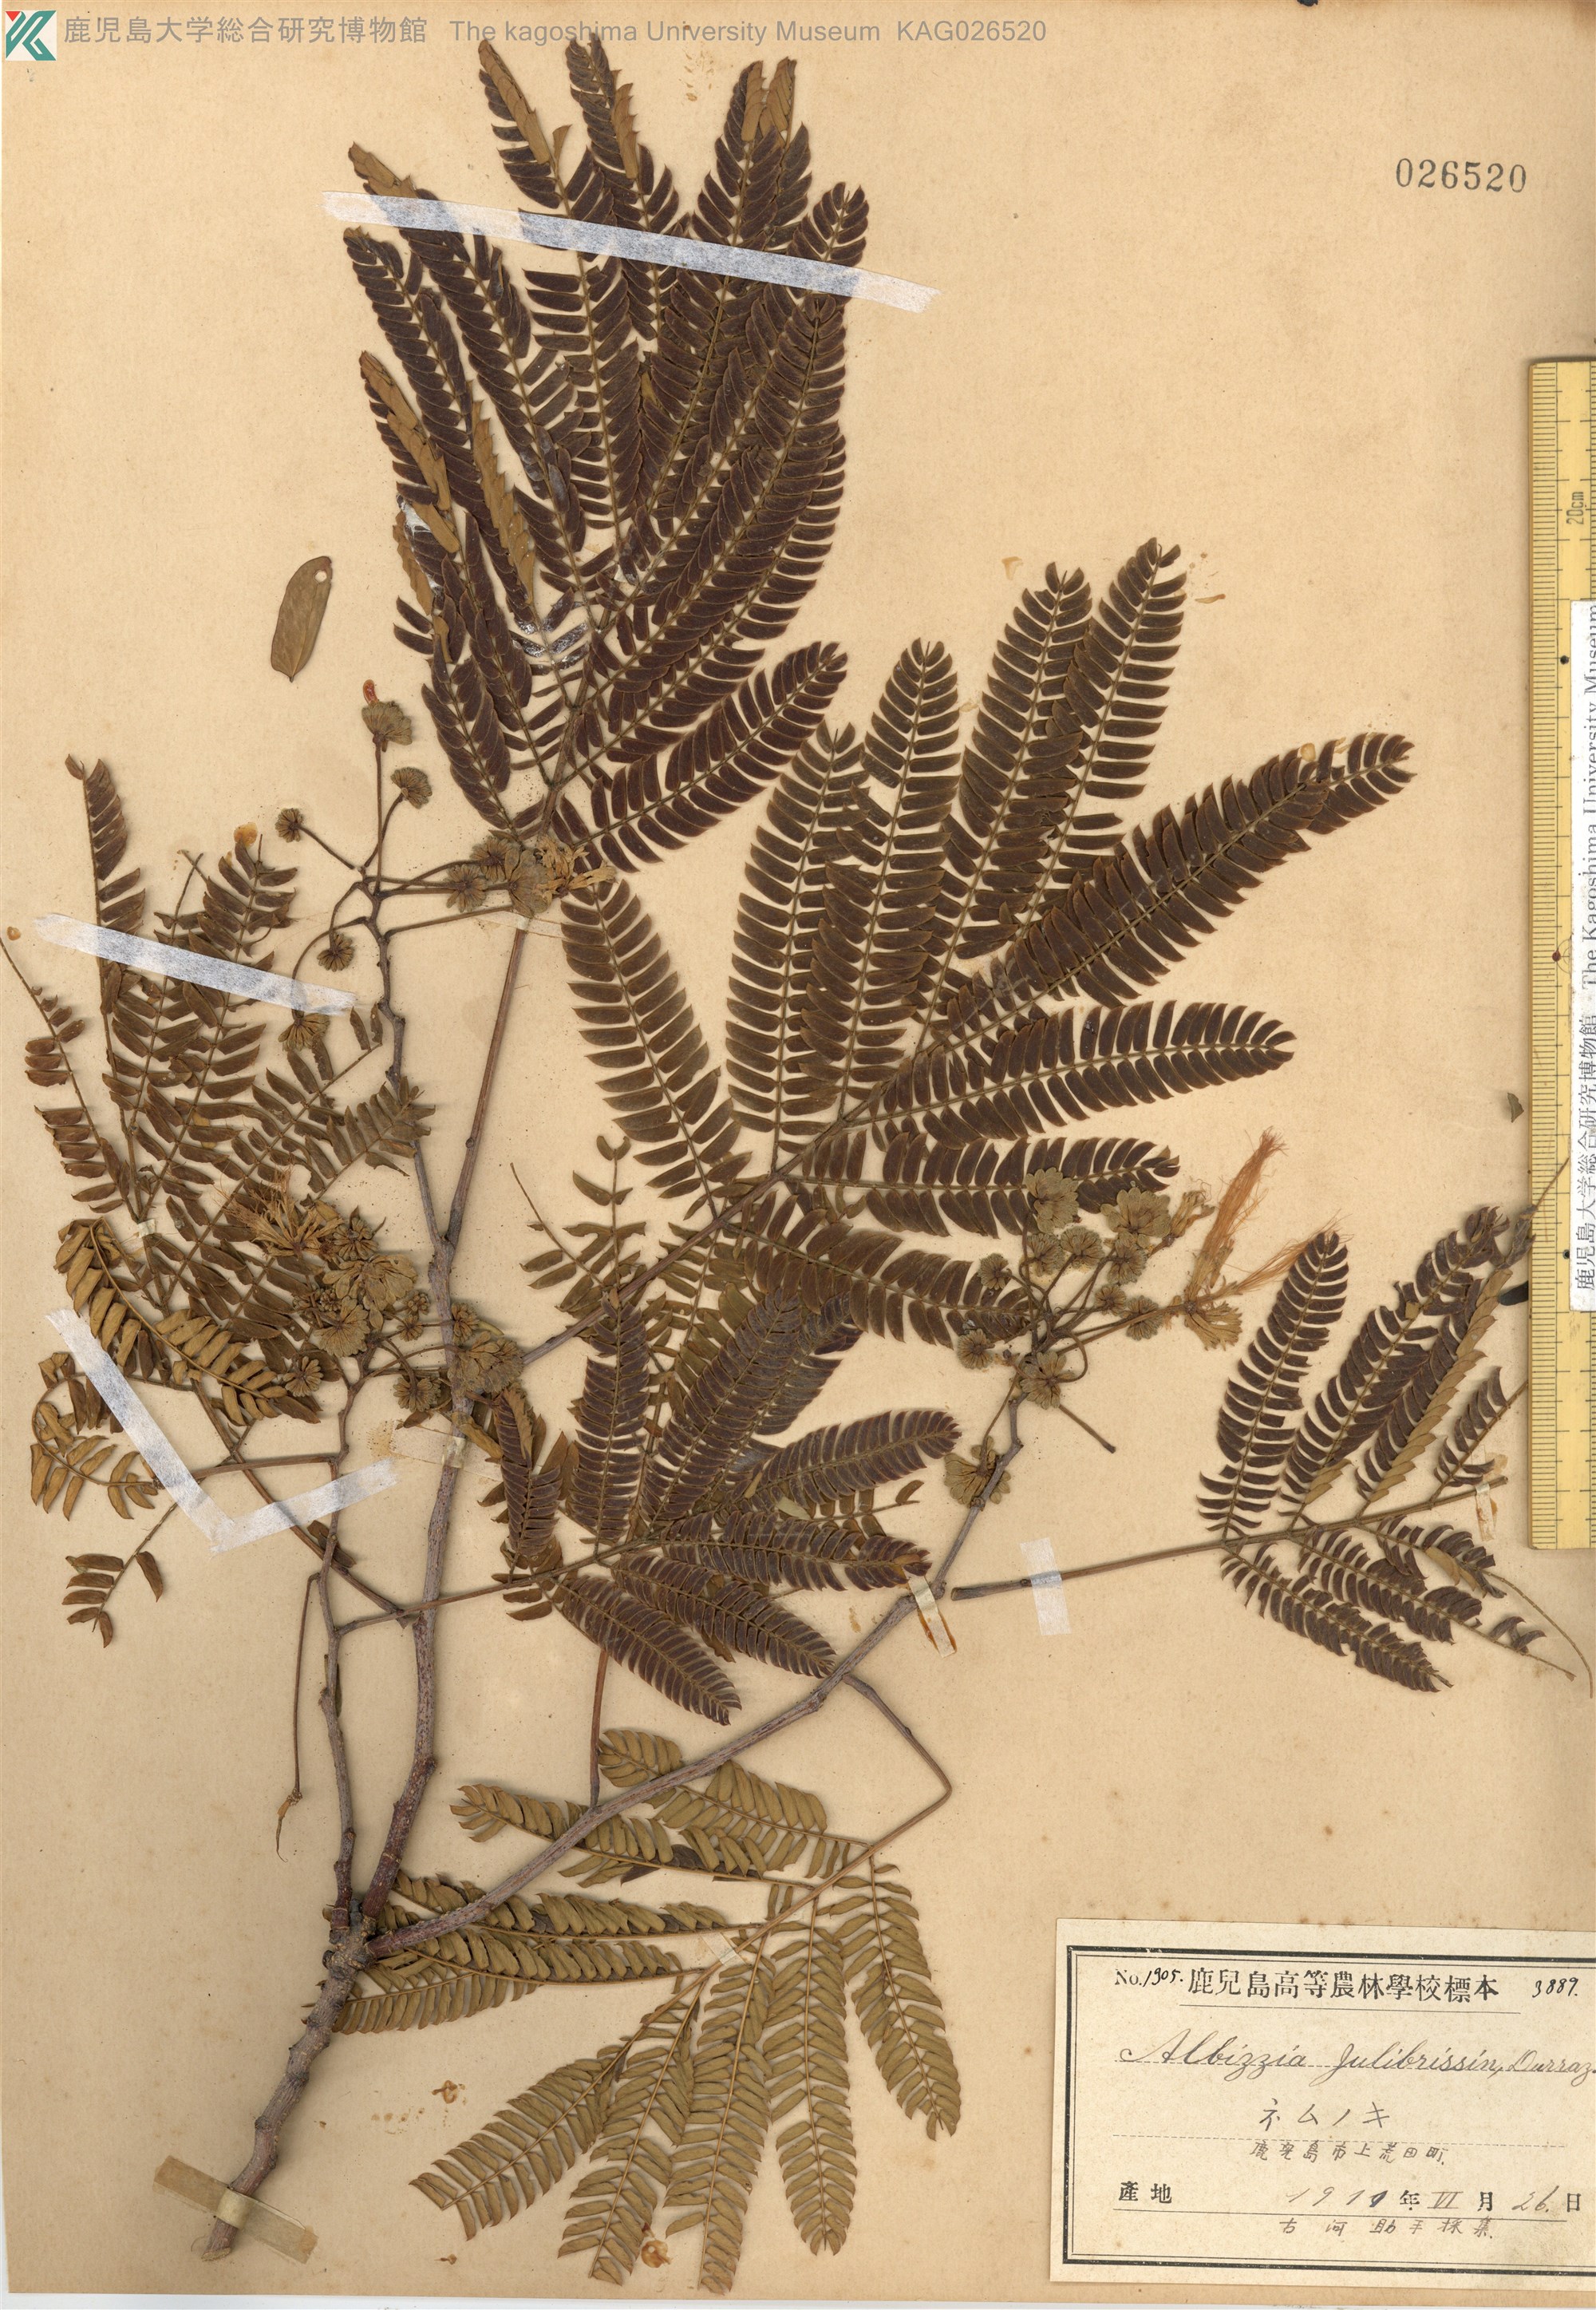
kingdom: Plantae
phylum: Tracheophyta
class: Magnoliopsida
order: Fabales
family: Fabaceae
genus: Albizia
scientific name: Albizia julibrissin
